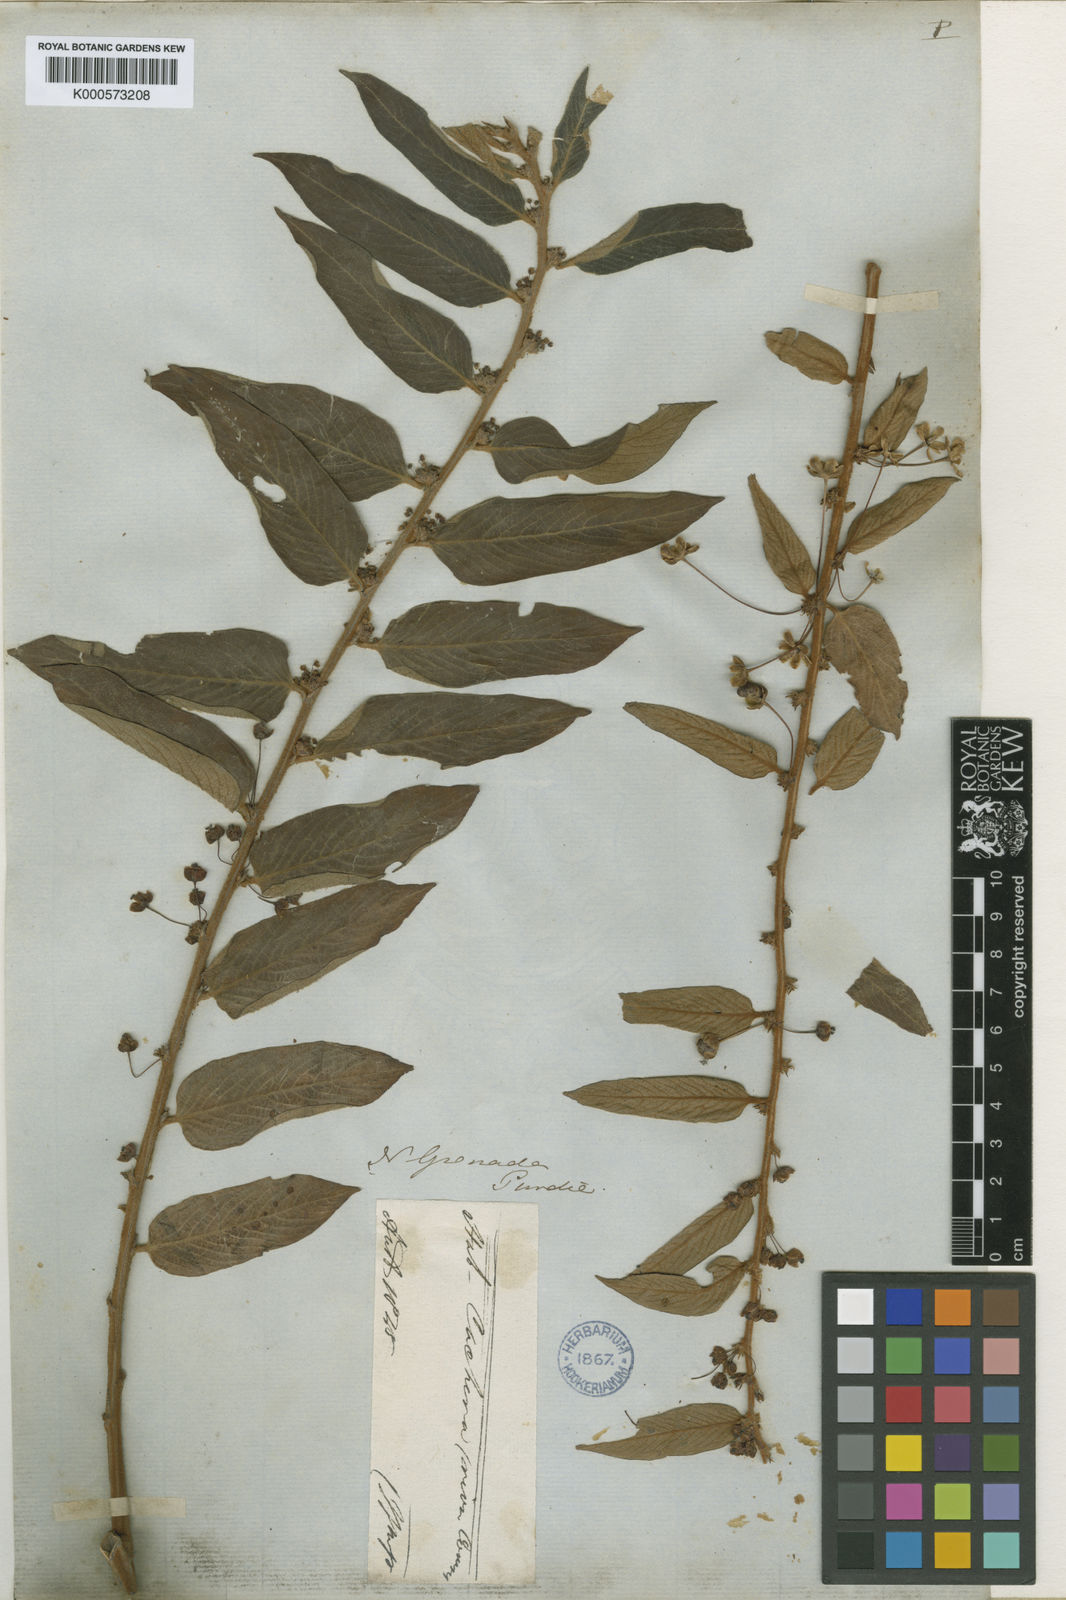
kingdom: Plantae
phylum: Tracheophyta
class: Magnoliopsida
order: Malpighiales
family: Phyllanthaceae
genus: Phyllanthus
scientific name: Phyllanthus salviifolius
